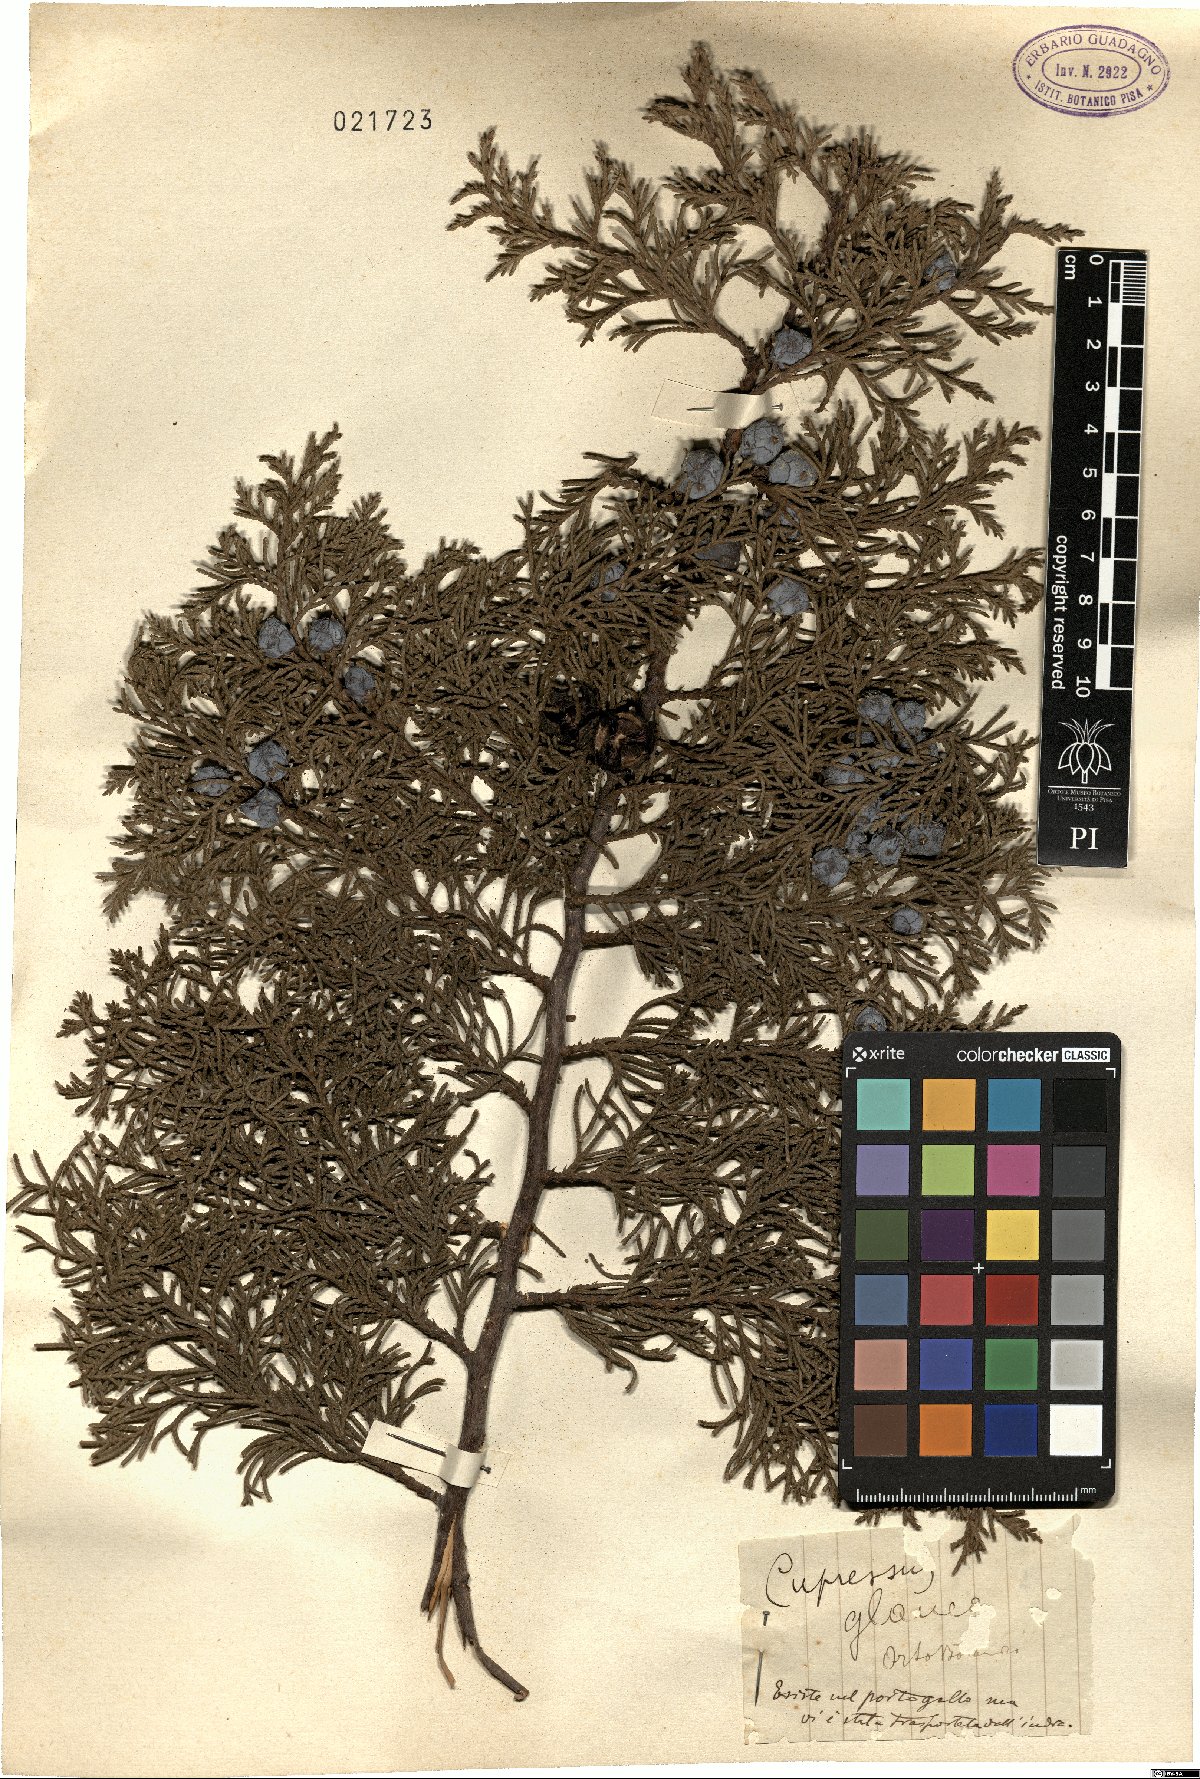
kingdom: Plantae
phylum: Tracheophyta
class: Pinopsida
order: Pinales
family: Cupressaceae
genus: Cupressus
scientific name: Cupressus
